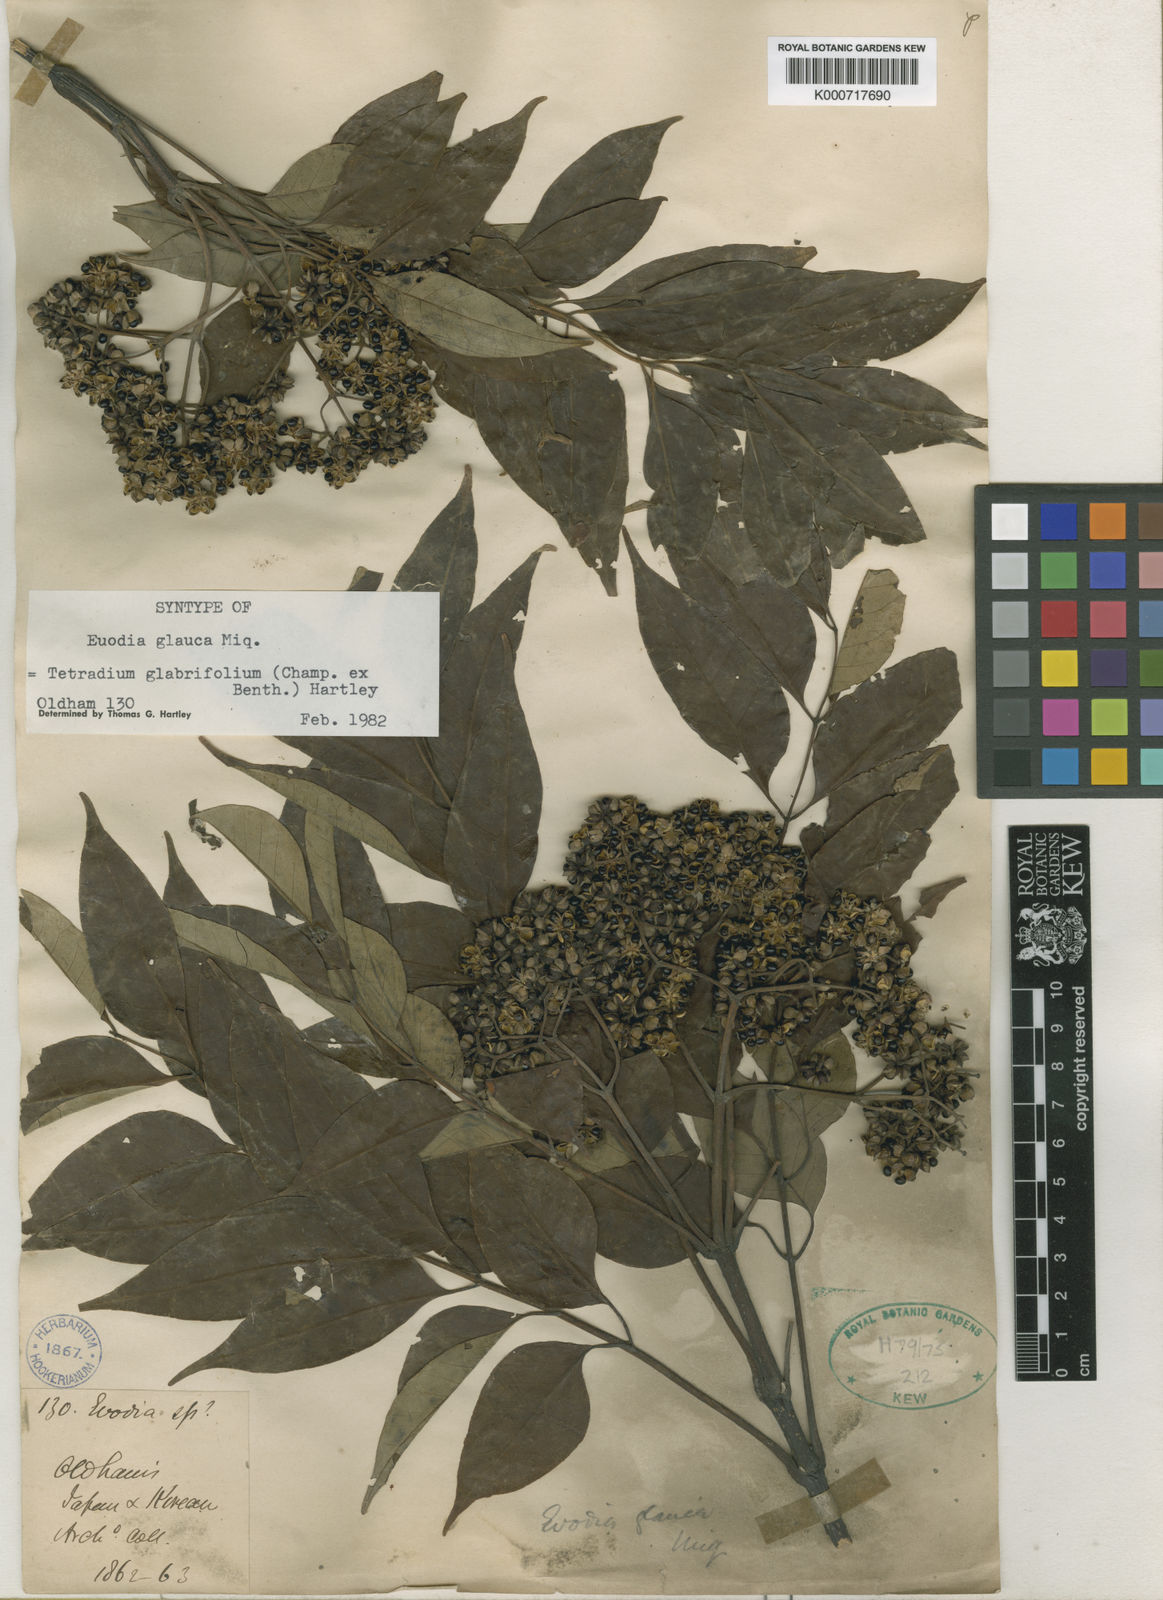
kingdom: Plantae
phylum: Tracheophyta
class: Magnoliopsida
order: Sapindales
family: Rutaceae
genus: Tetradium
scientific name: Tetradium glabrifolium
